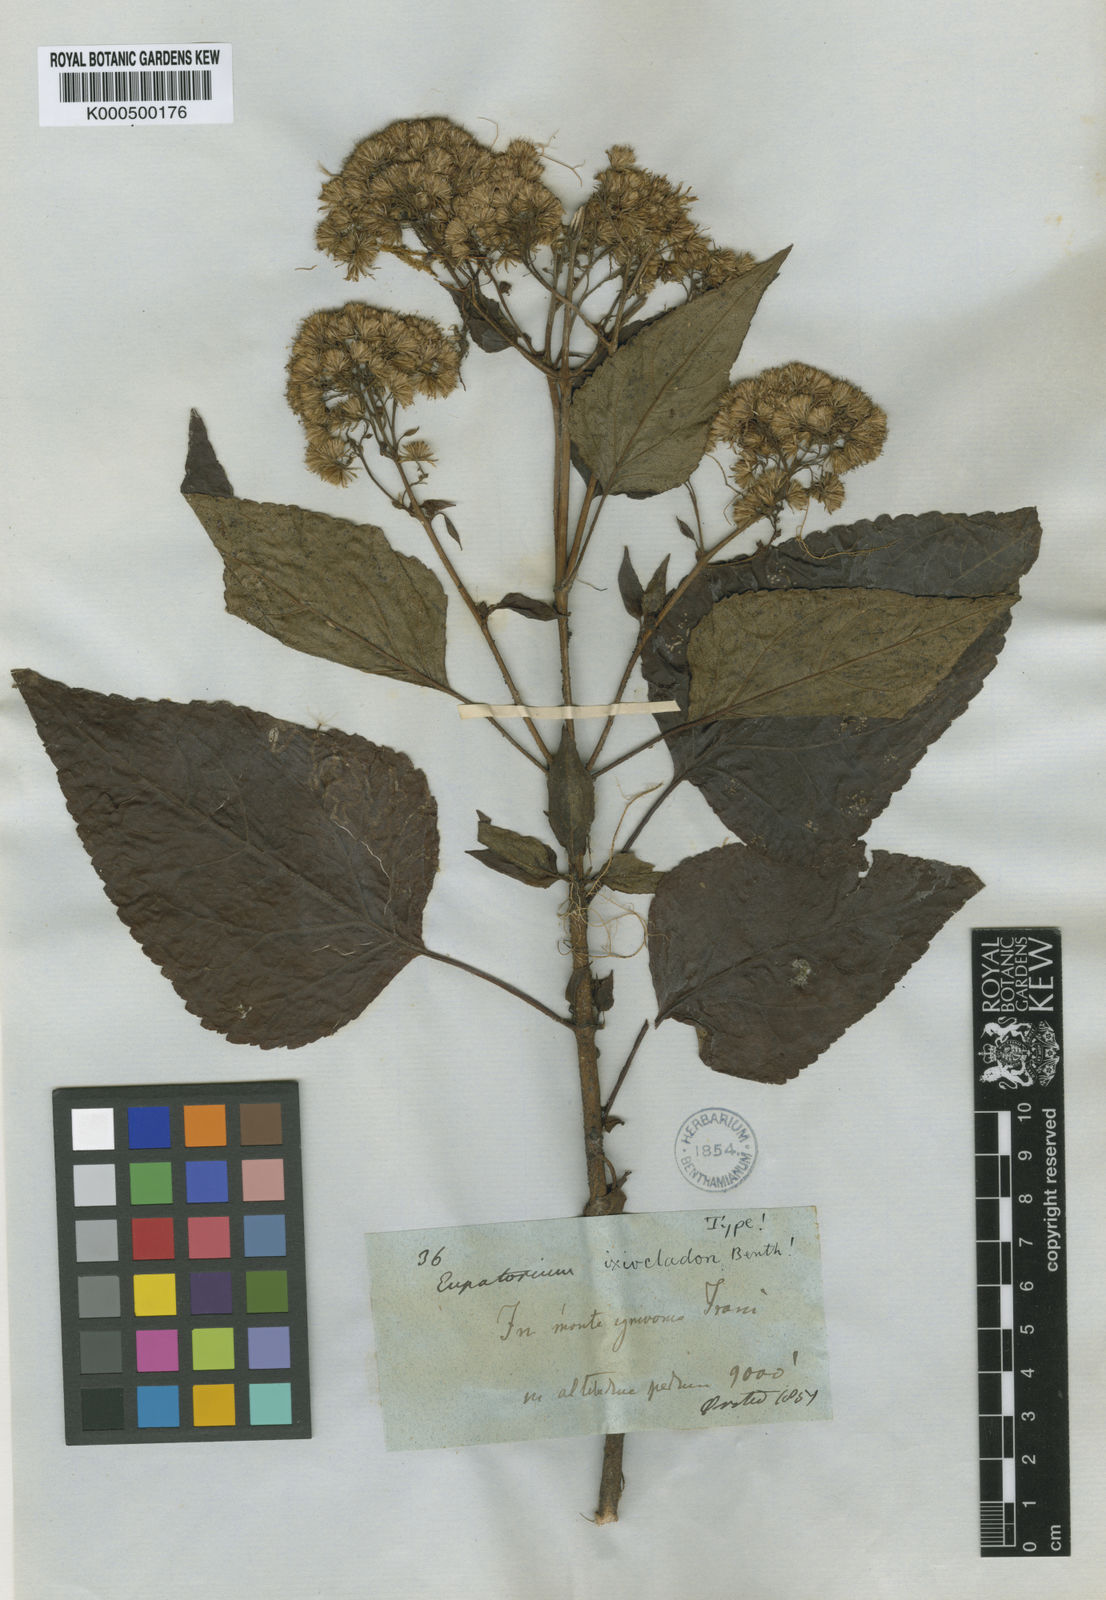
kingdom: Plantae
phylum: Tracheophyta
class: Magnoliopsida
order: Asterales
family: Asteraceae
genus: Ageratina
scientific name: Ageratina bustamenta
